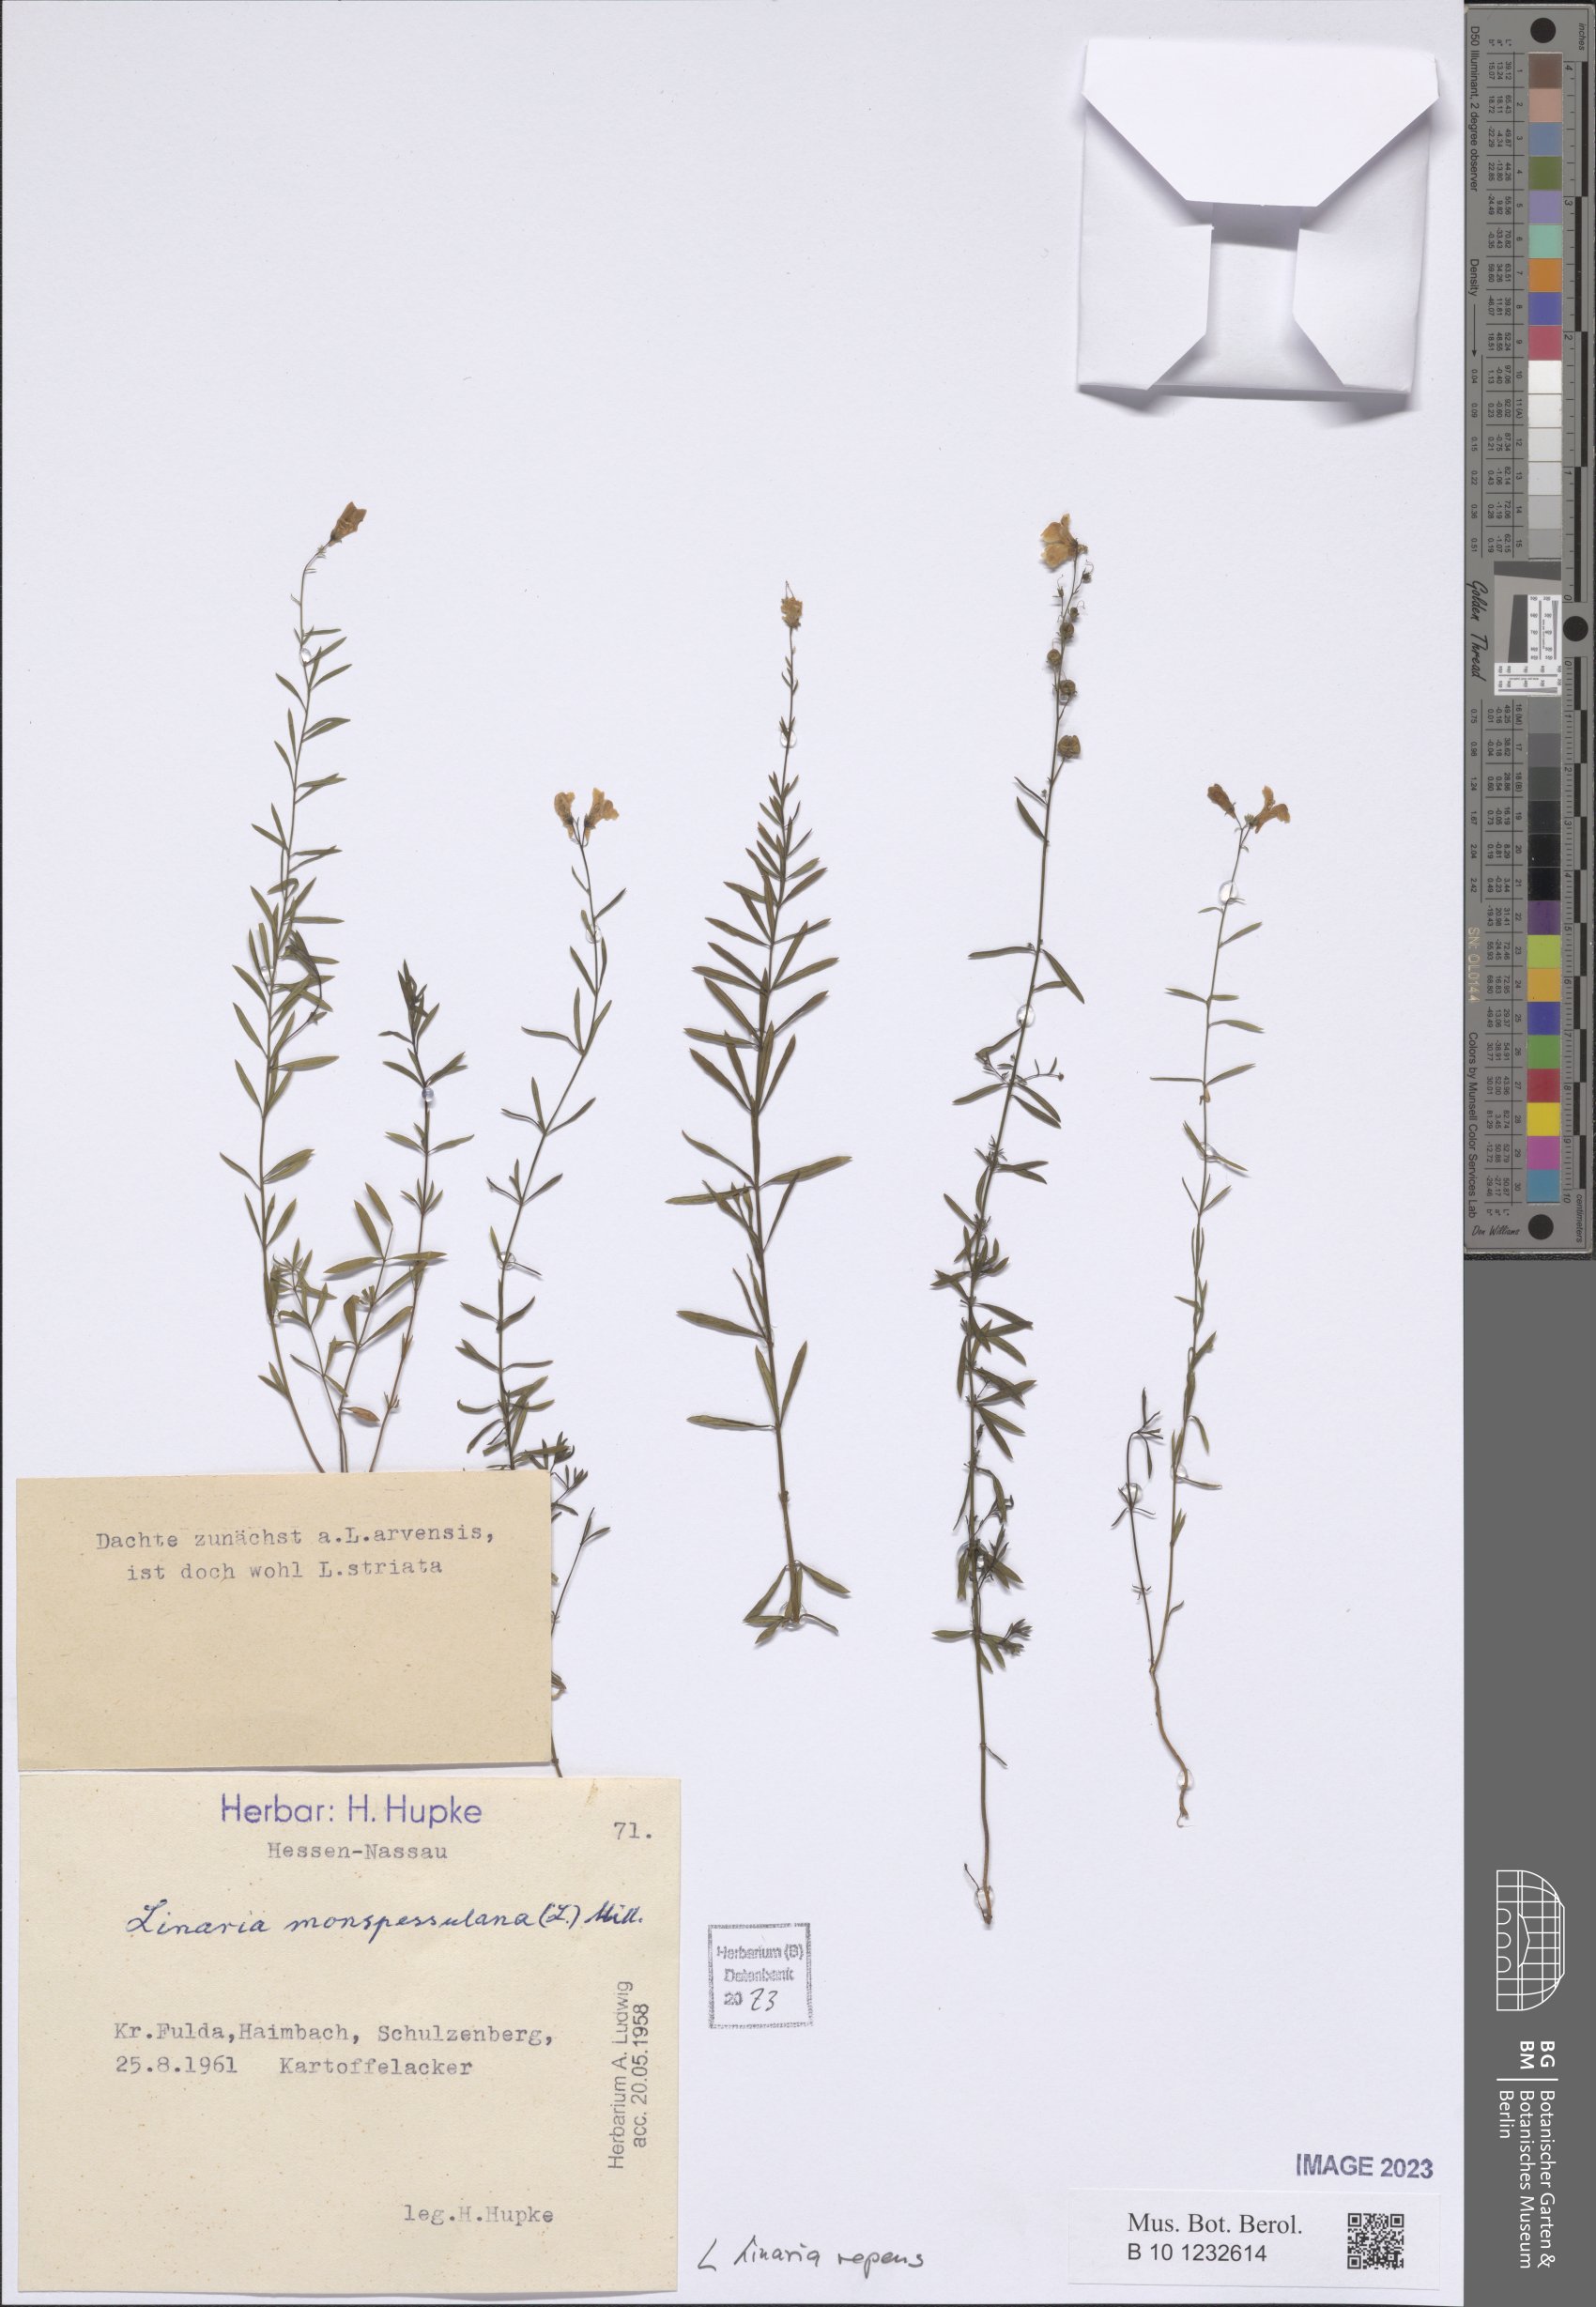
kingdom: Plantae
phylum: Tracheophyta
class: Magnoliopsida
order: Lamiales
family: Plantaginaceae
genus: Linaria
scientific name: Linaria repens
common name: Pale toadflax
